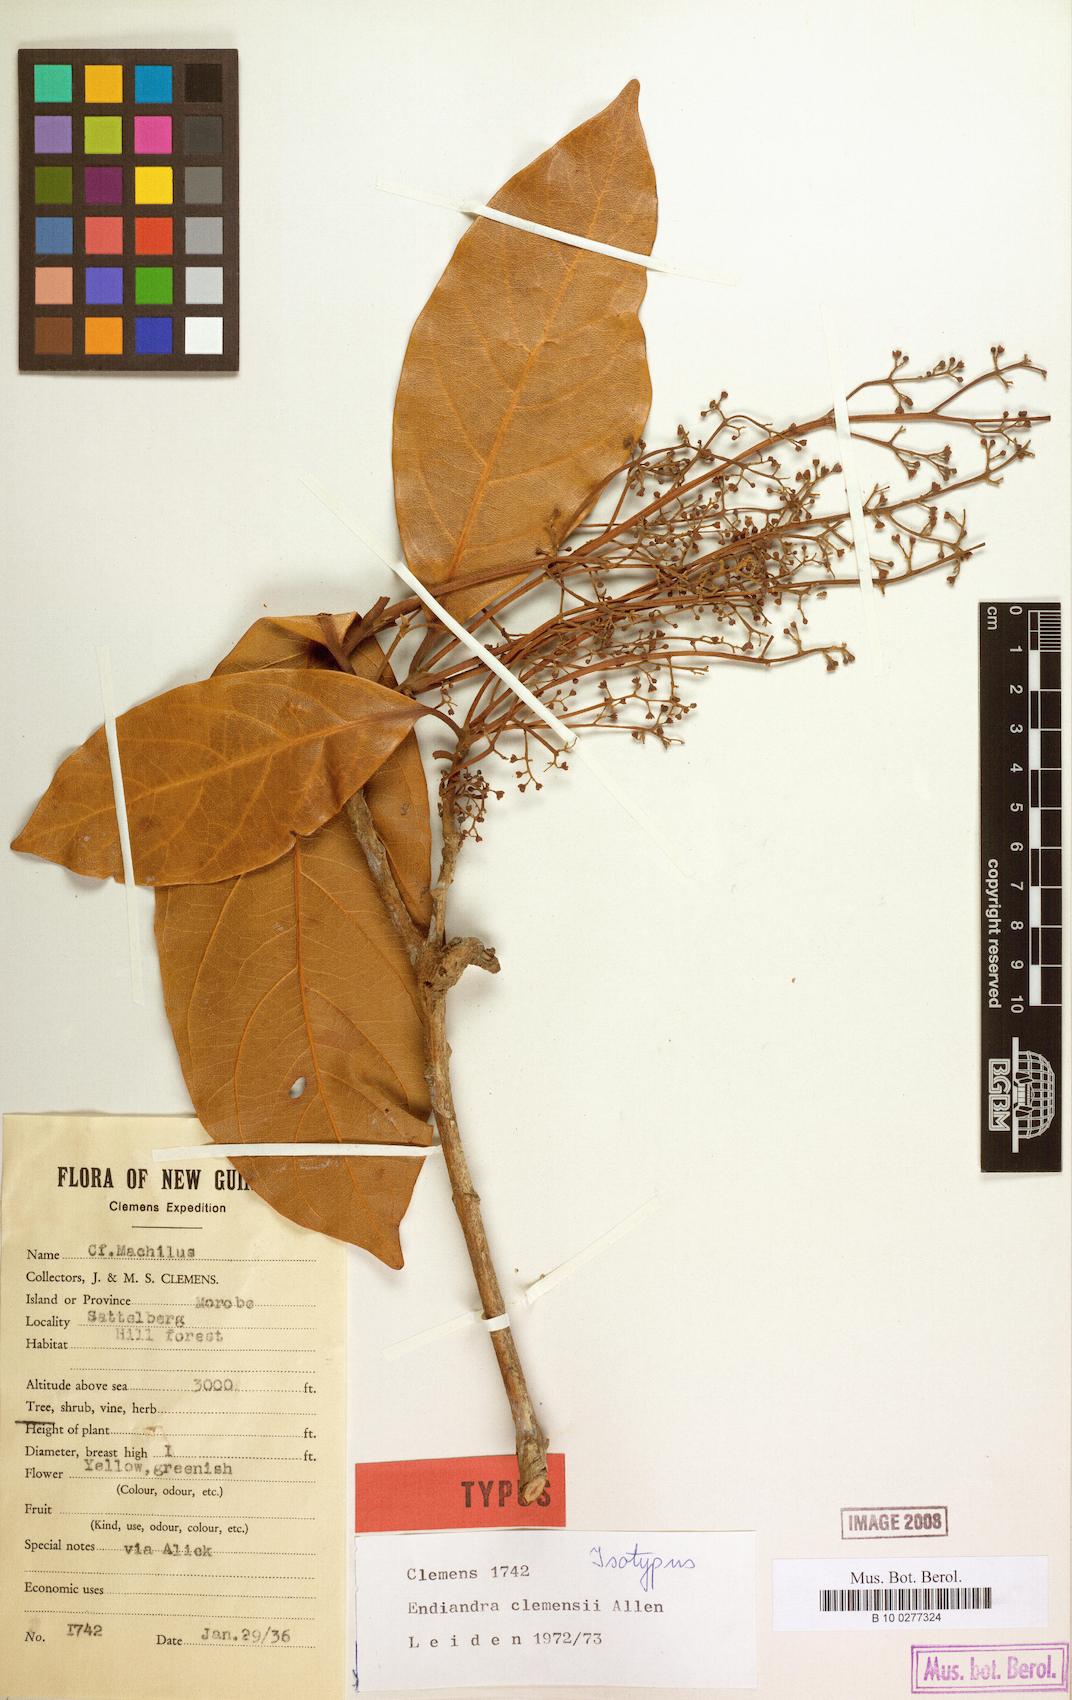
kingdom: Plantae
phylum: Tracheophyta
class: Magnoliopsida
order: Laurales
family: Lauraceae
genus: Endiandra
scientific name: Endiandra clemensii
